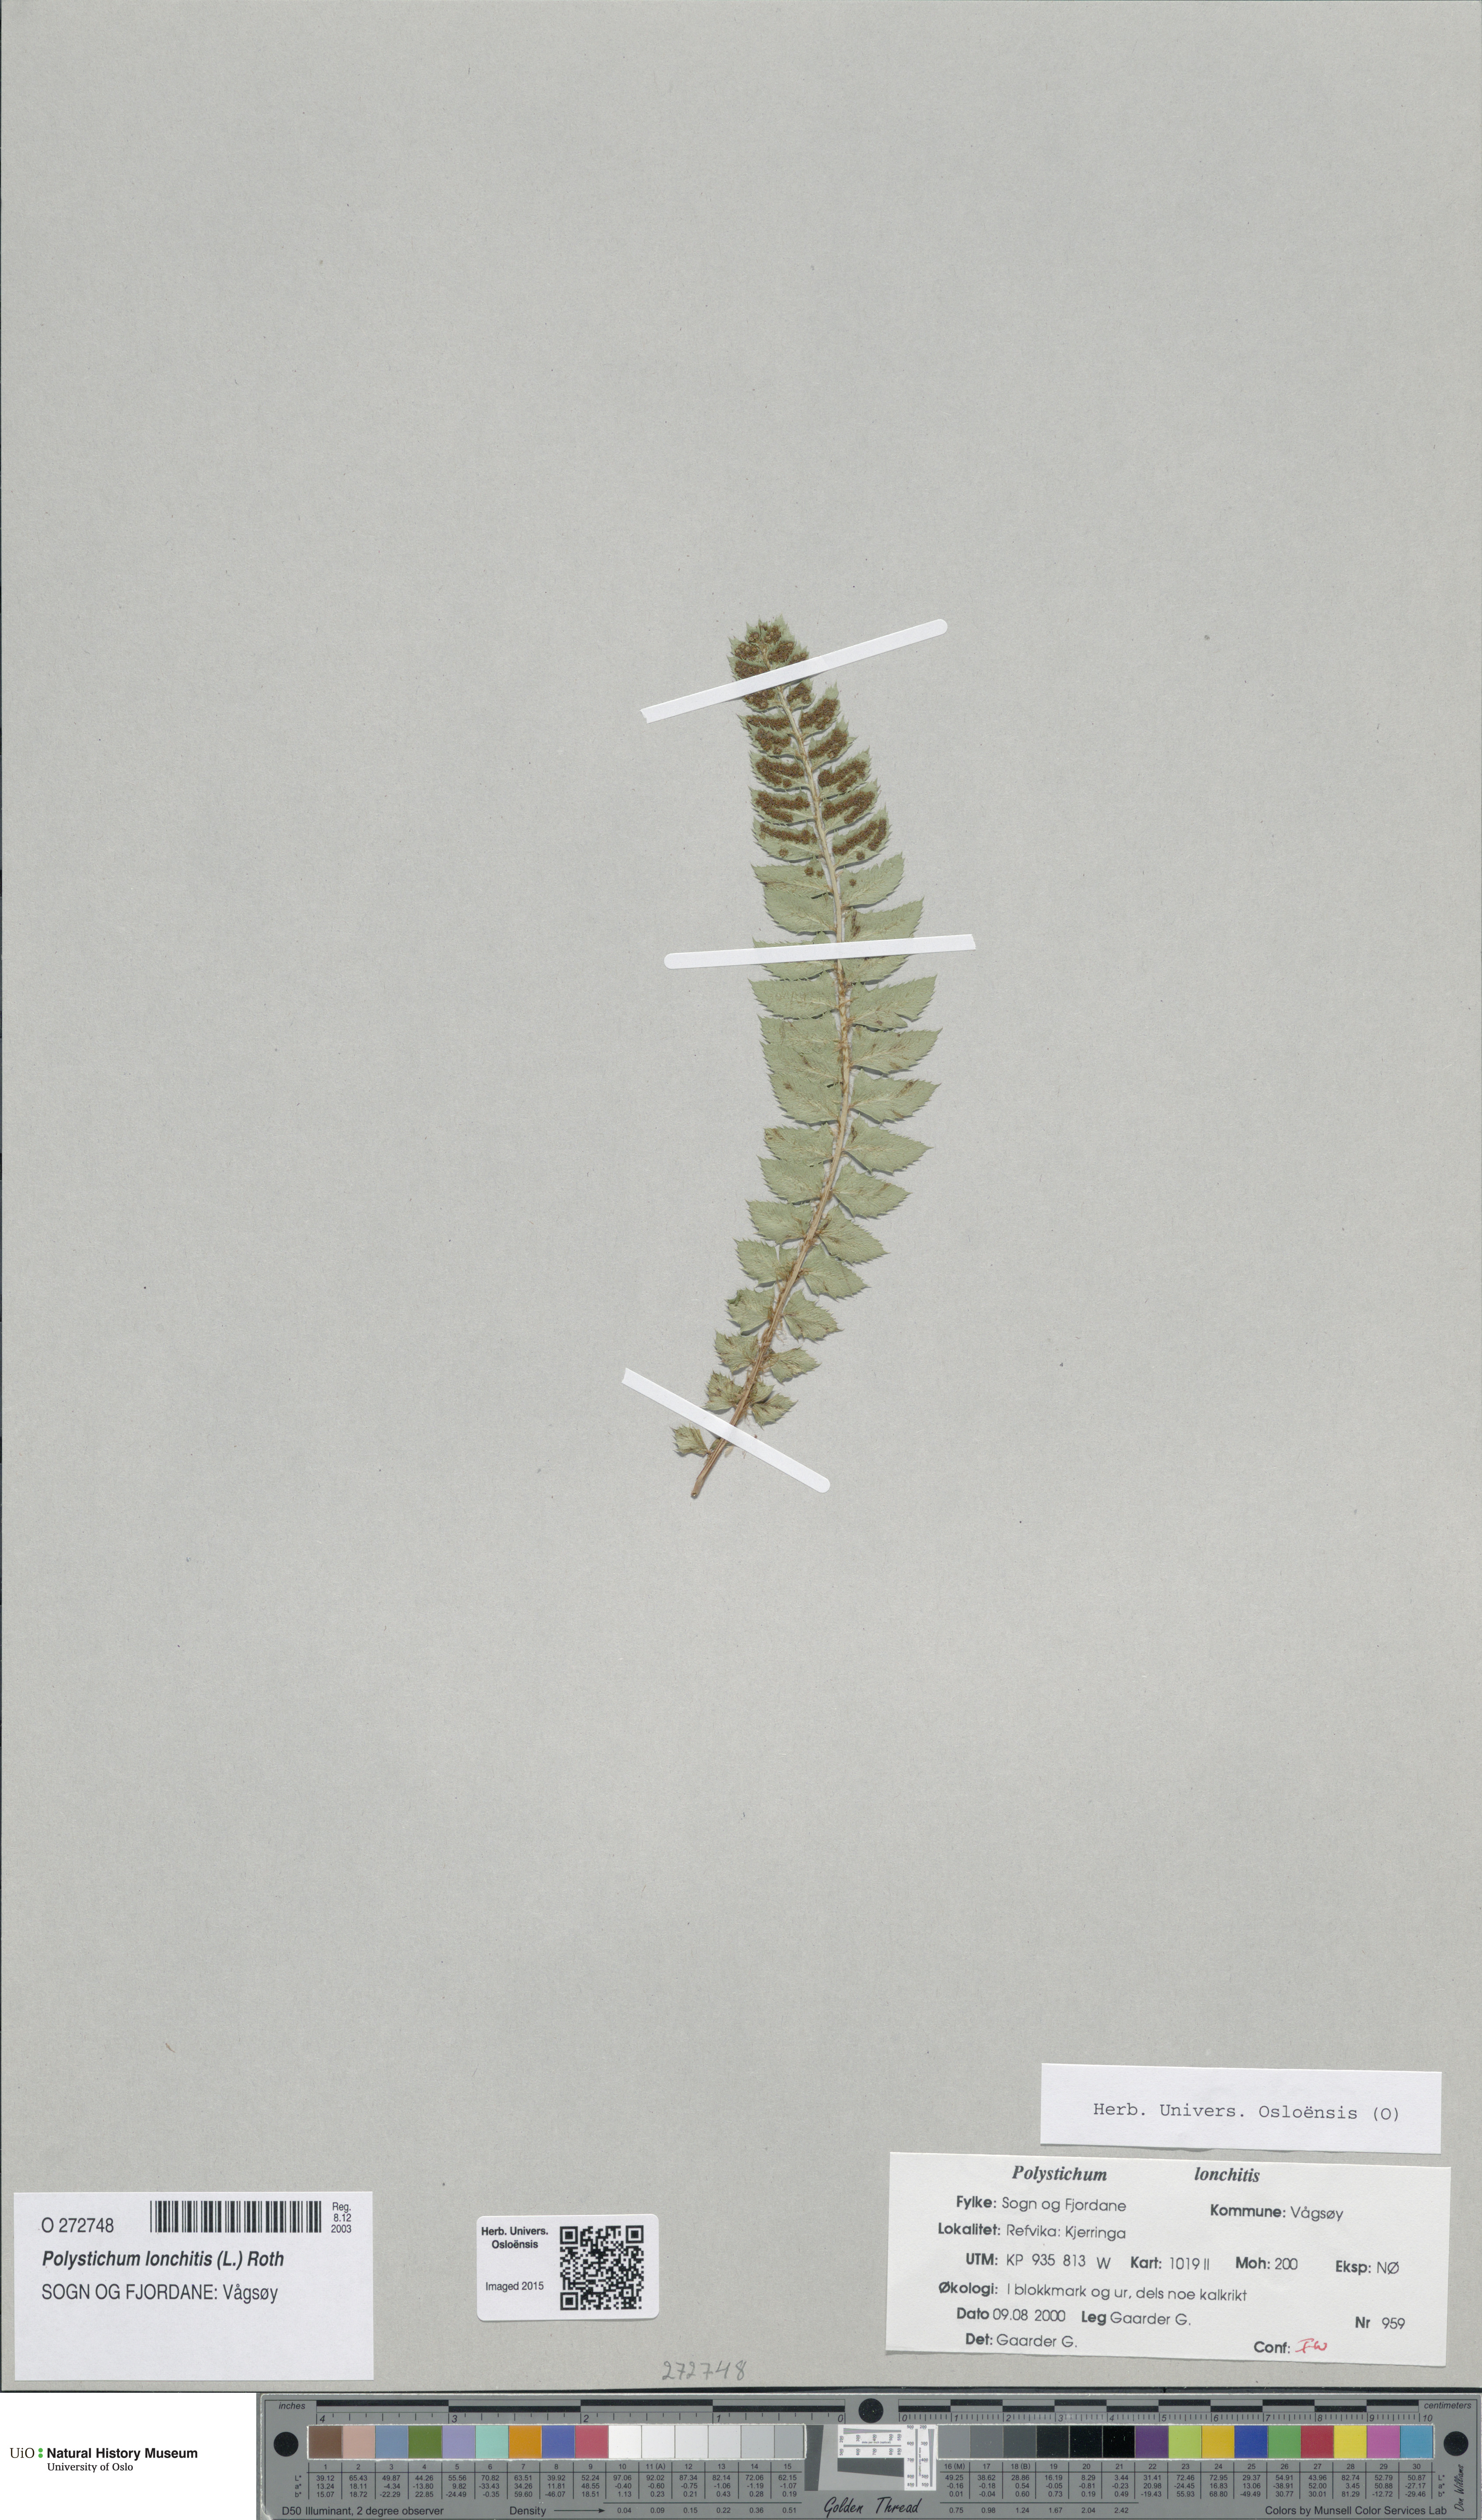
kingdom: Plantae
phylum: Tracheophyta
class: Polypodiopsida
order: Polypodiales
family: Dryopteridaceae
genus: Polystichum
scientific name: Polystichum lonchitis
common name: Holly fern
